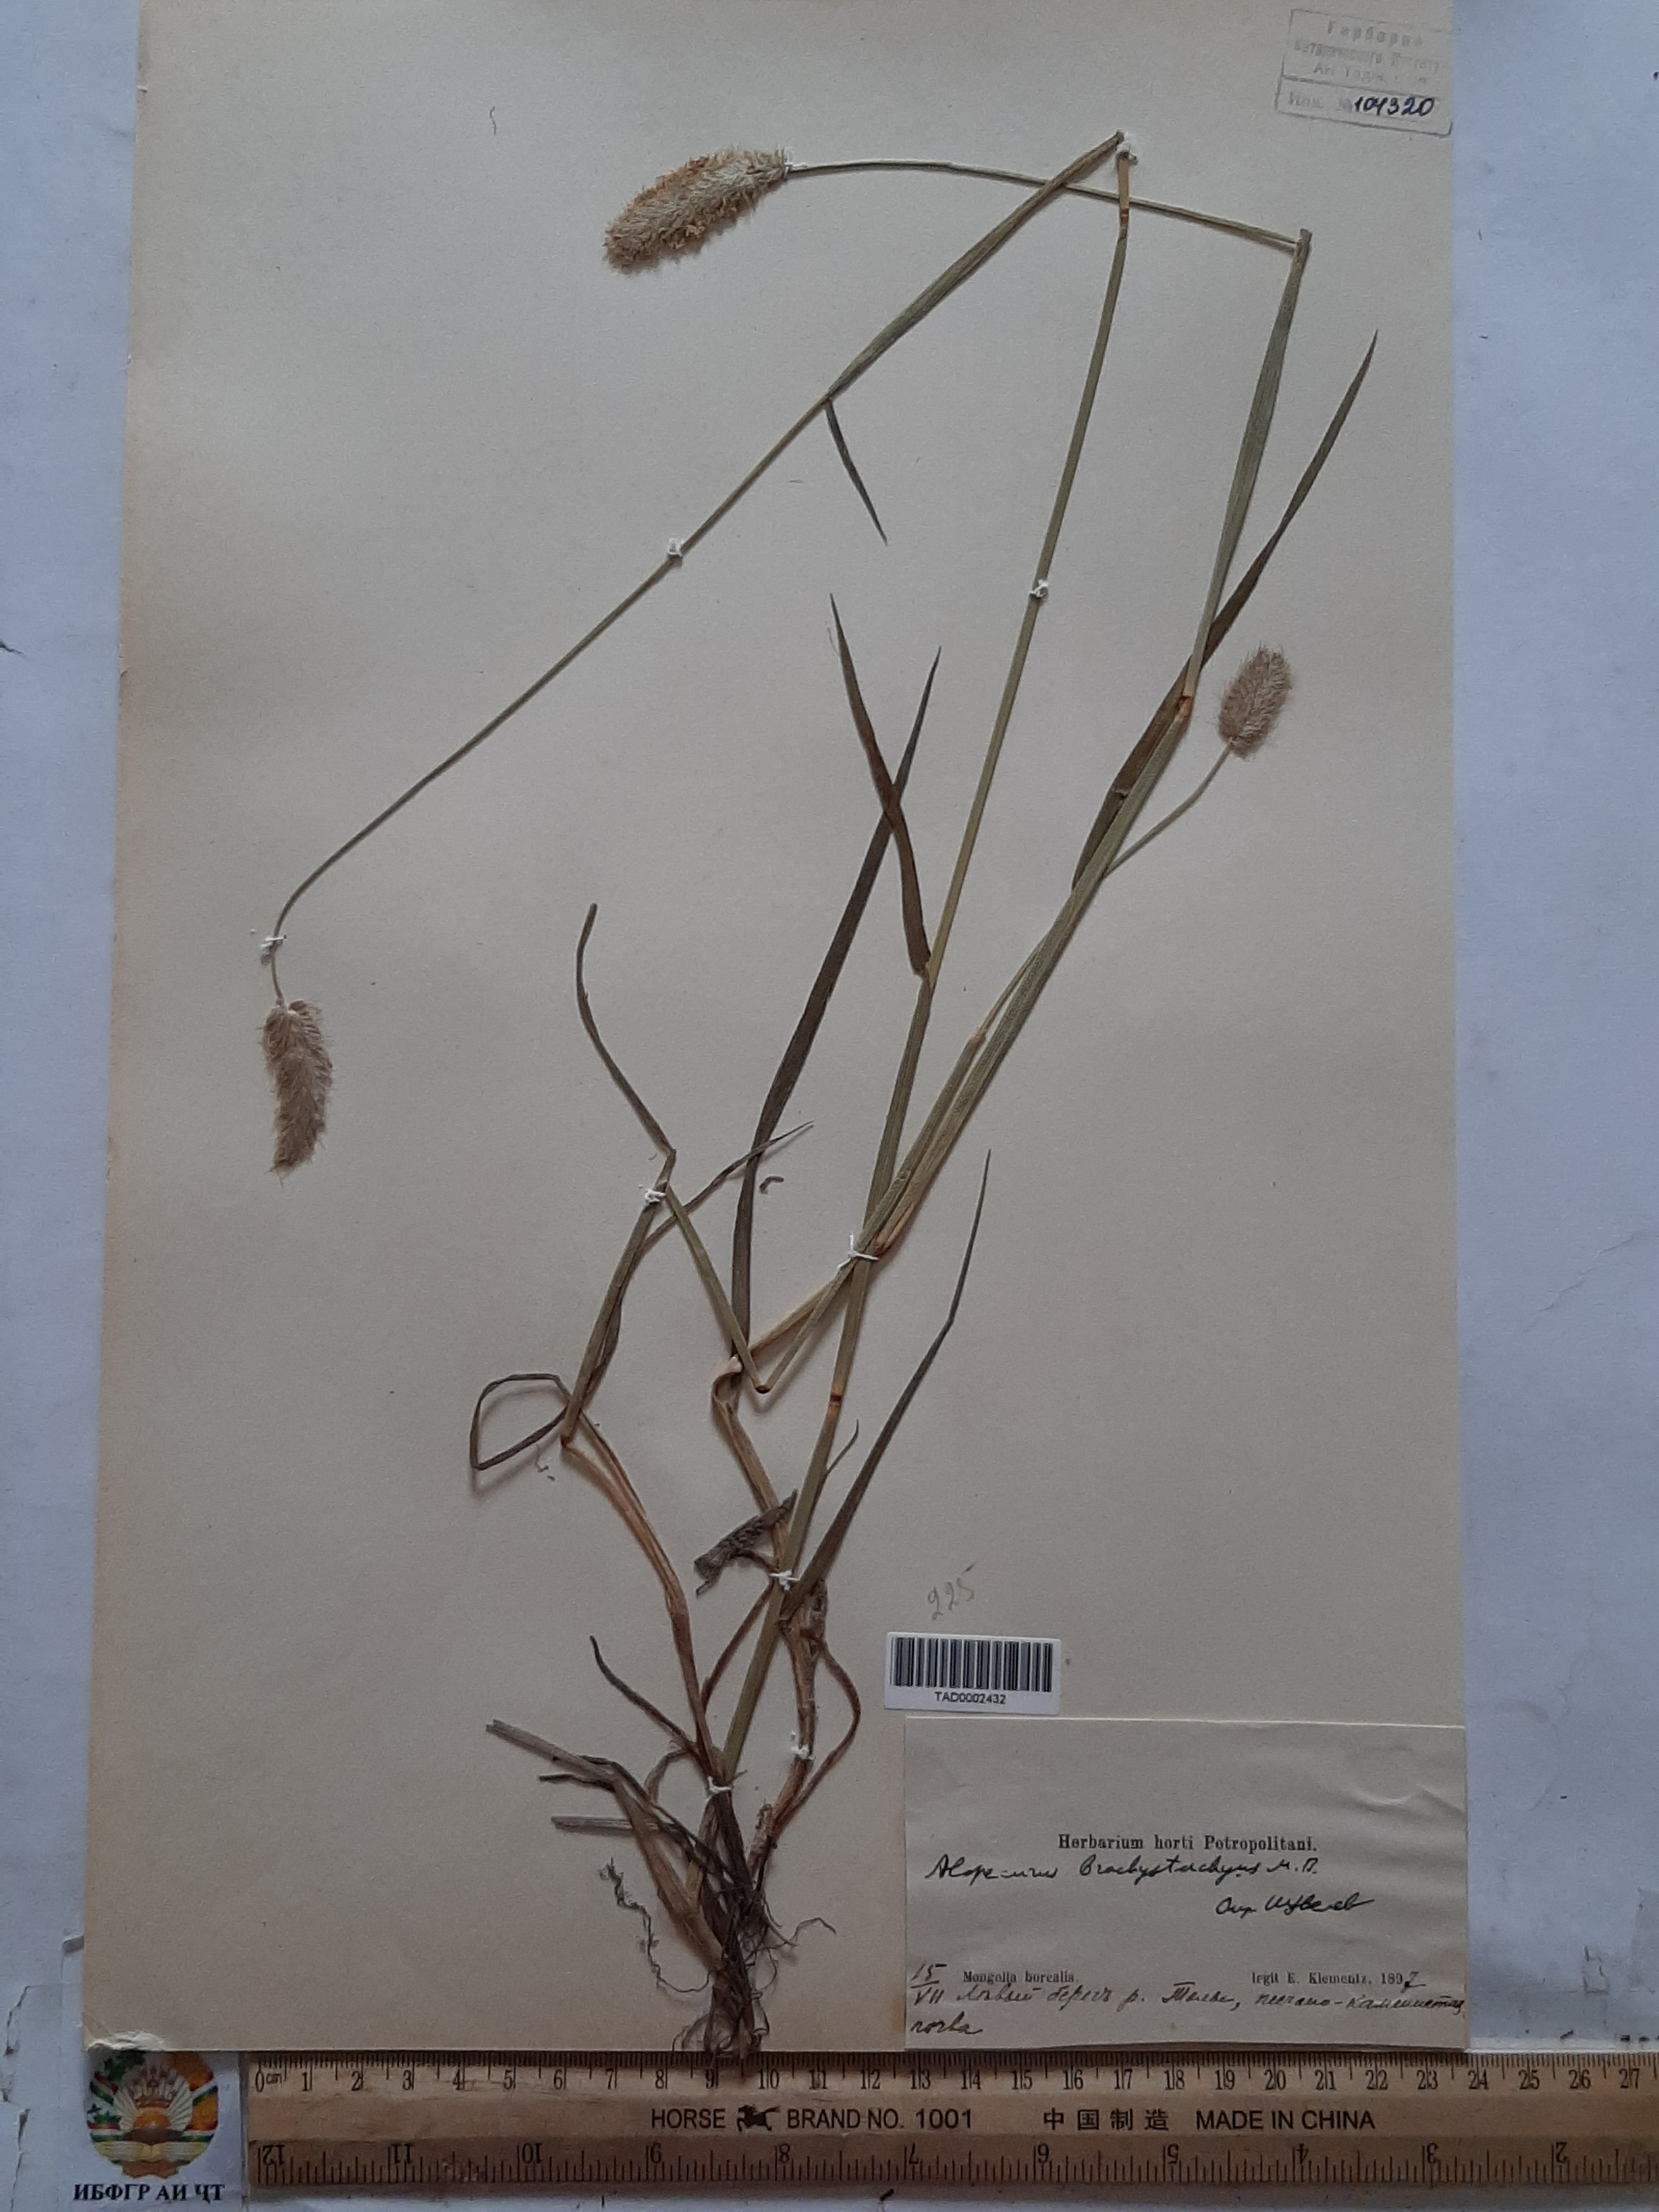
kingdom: Plantae
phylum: Tracheophyta
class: Liliopsida
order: Poales
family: Poaceae
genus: Alopecurus
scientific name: Alopecurus
